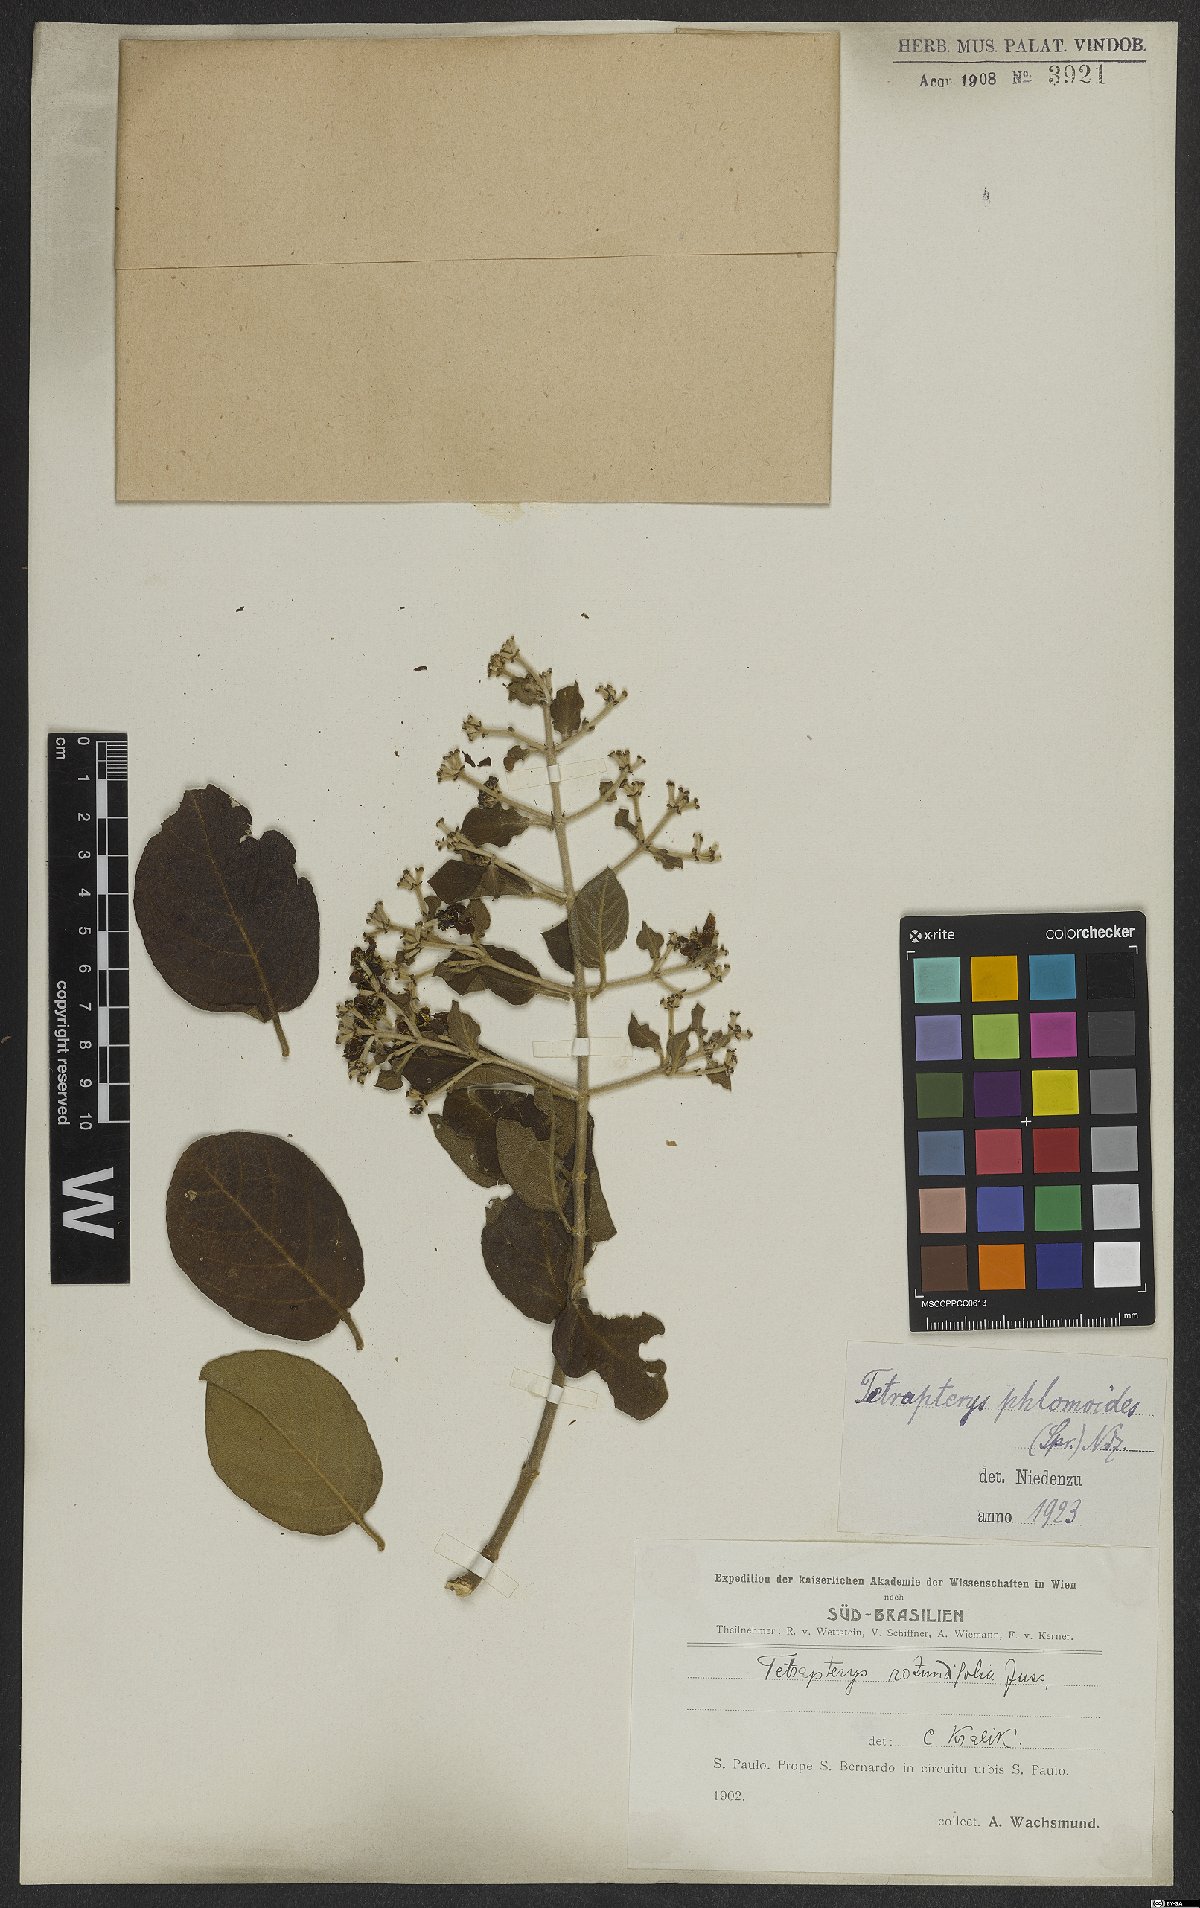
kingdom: Plantae
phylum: Tracheophyta
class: Magnoliopsida
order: Malpighiales
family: Malpighiaceae
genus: Tetrapterys
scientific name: Tetrapterys phlomoides
